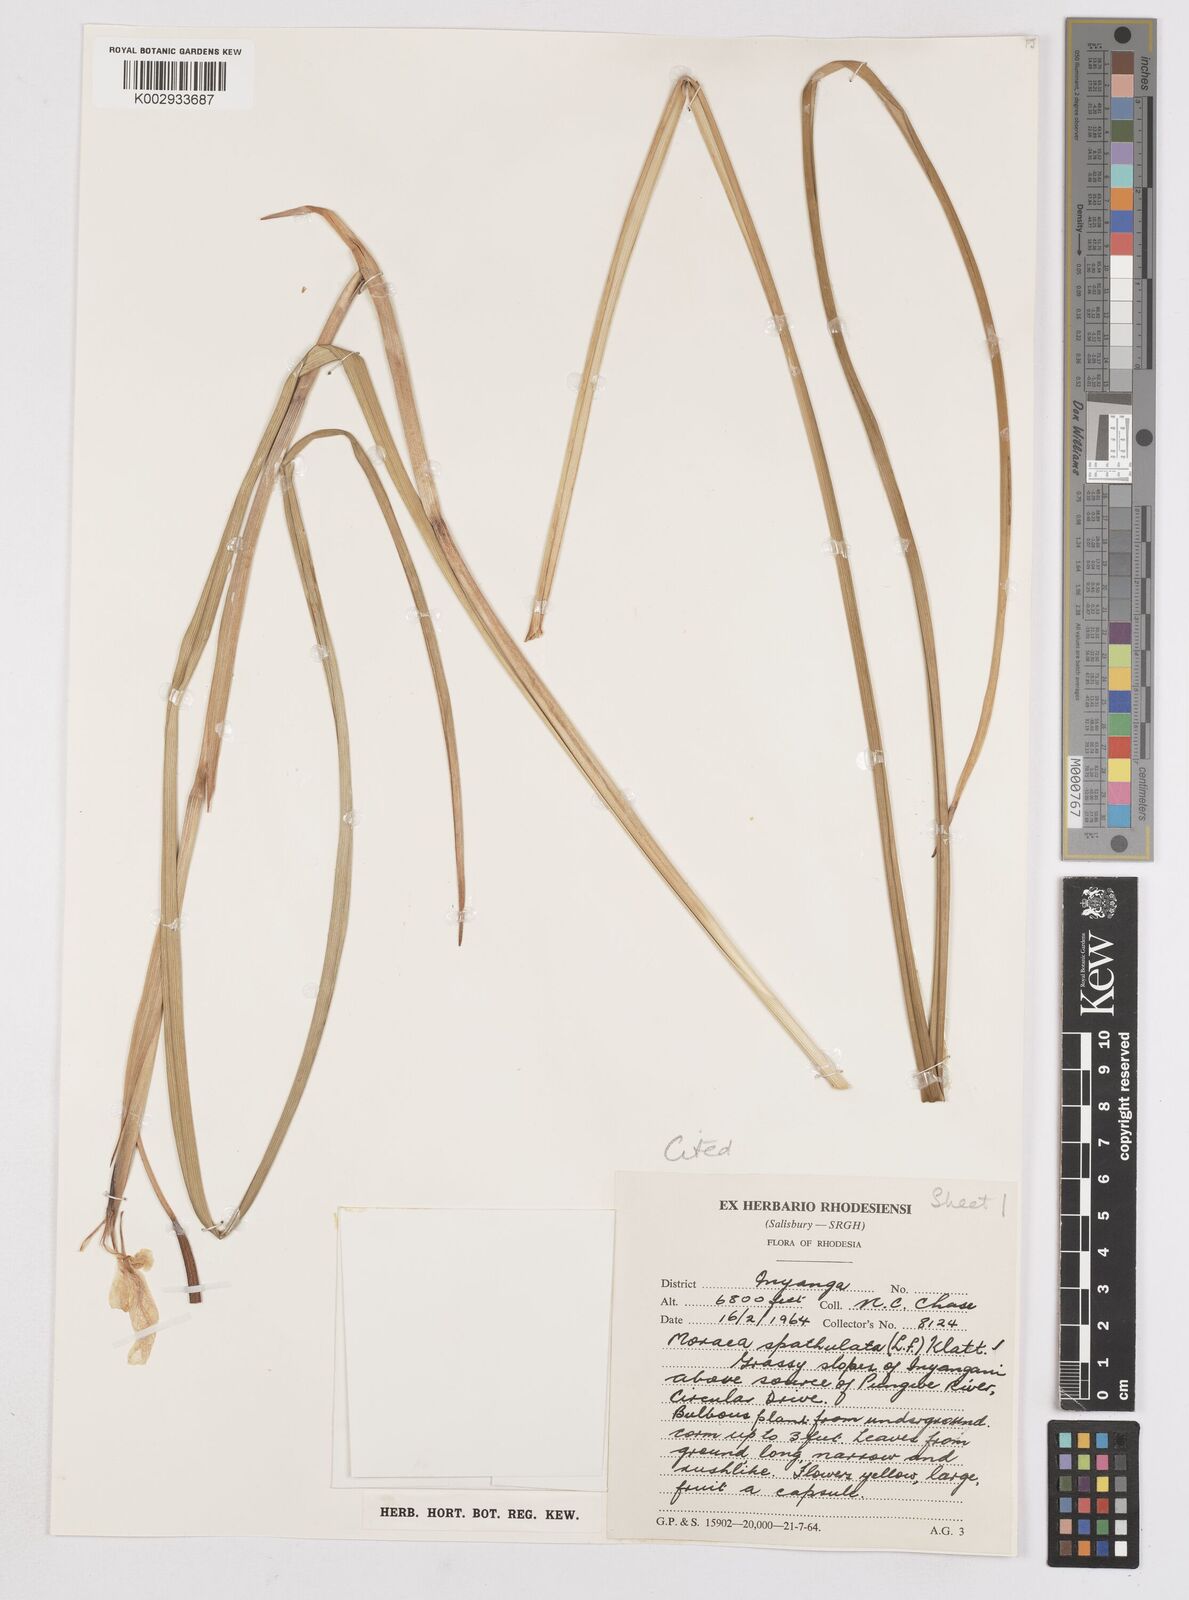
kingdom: Plantae
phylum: Tracheophyta
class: Liliopsida
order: Asparagales
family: Iridaceae
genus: Moraea
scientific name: Moraea spathulata
